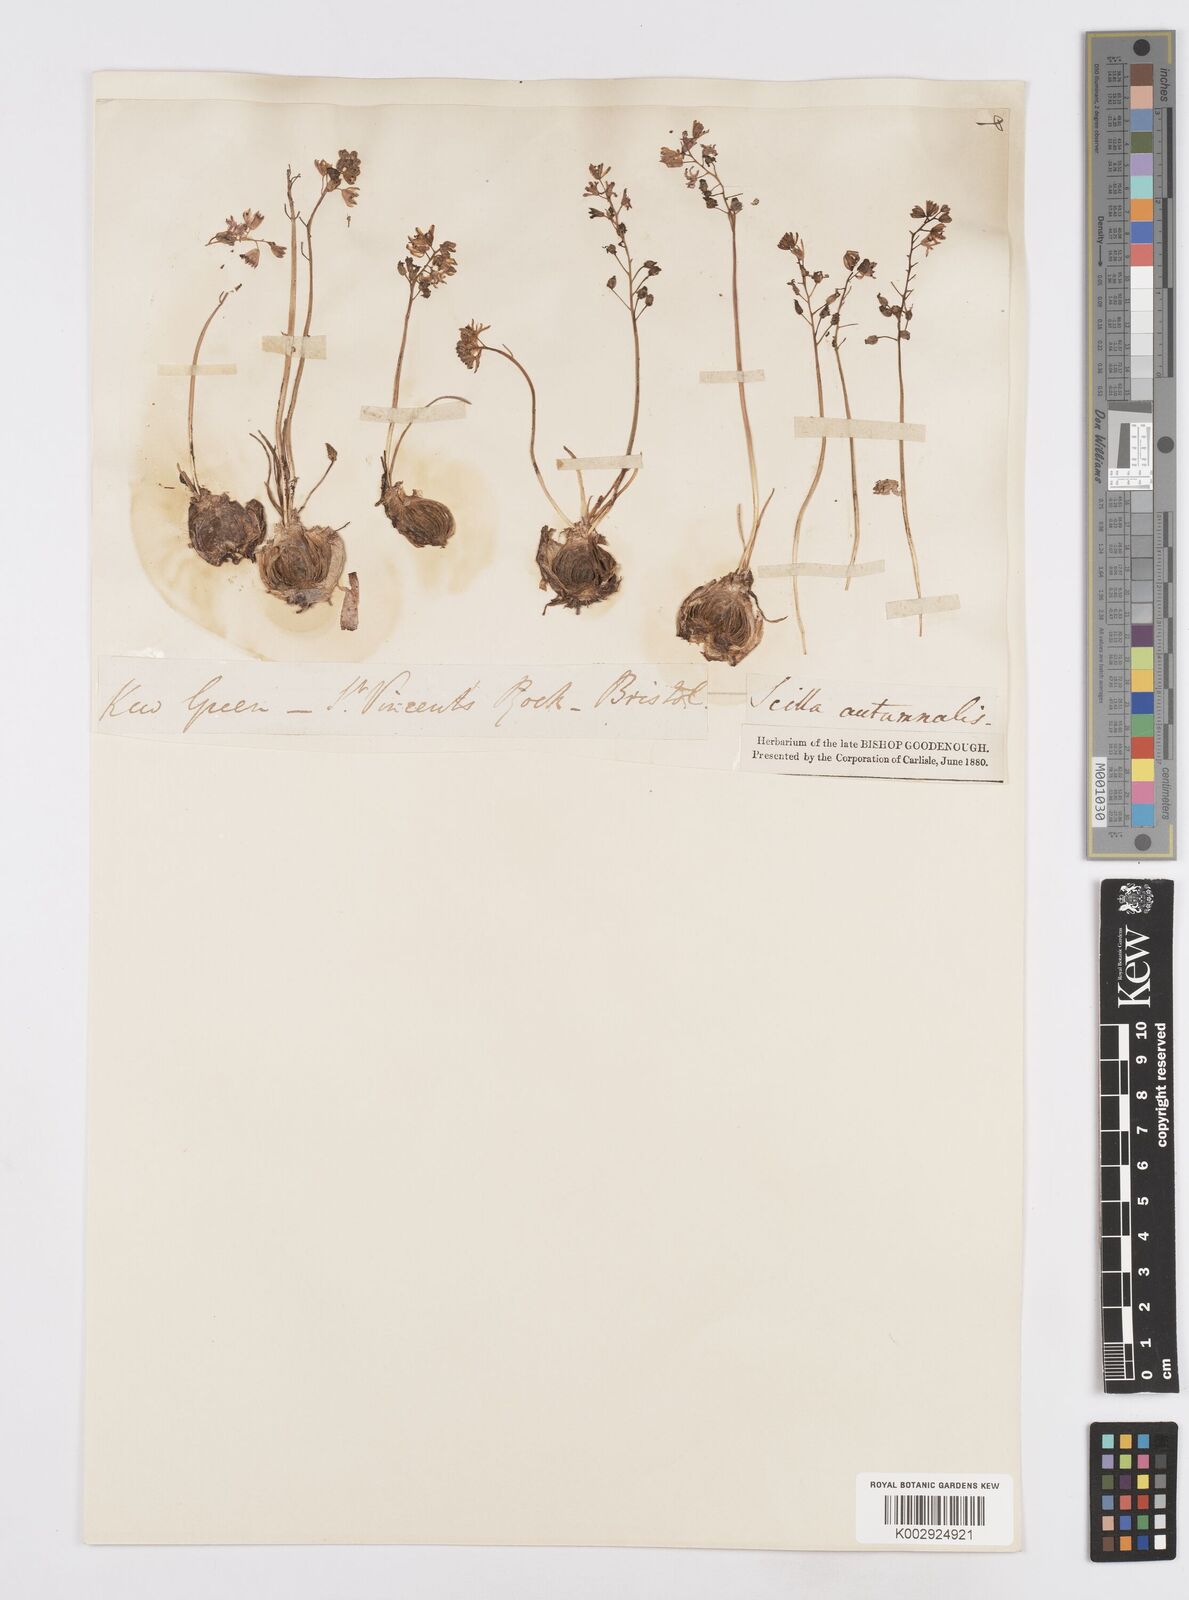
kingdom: Plantae
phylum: Tracheophyta
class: Liliopsida
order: Asparagales
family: Asparagaceae
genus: Scilla
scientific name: Scilla
